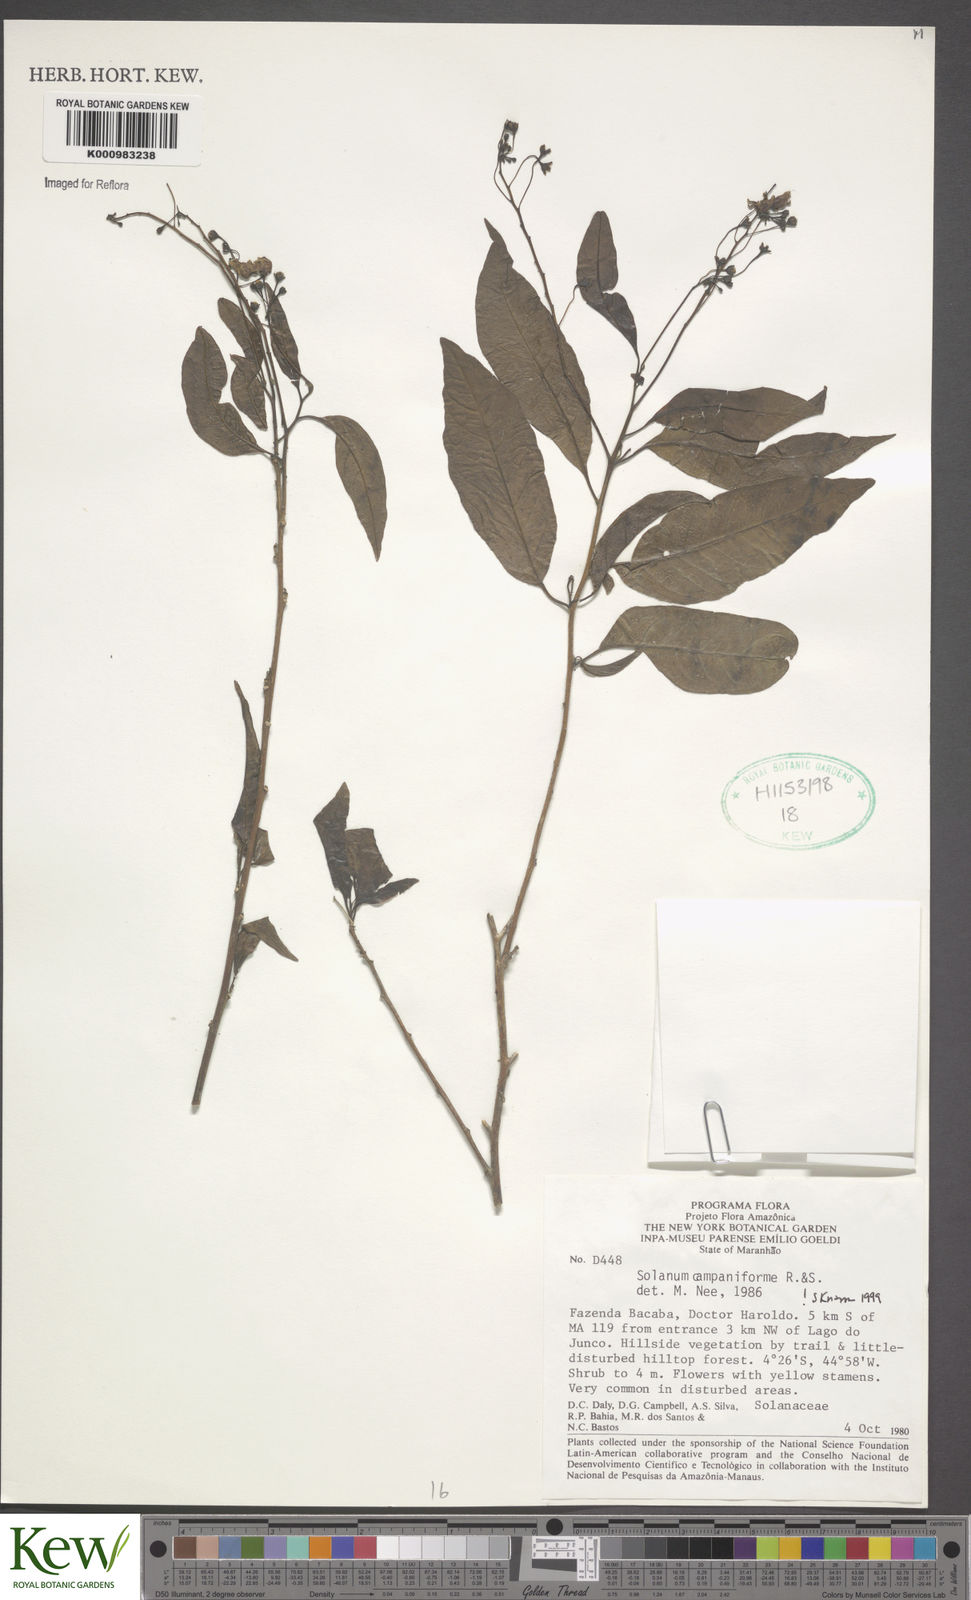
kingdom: Plantae
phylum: Tracheophyta
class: Magnoliopsida
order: Solanales
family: Solanaceae
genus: Solanum
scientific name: Solanum campaniforme
